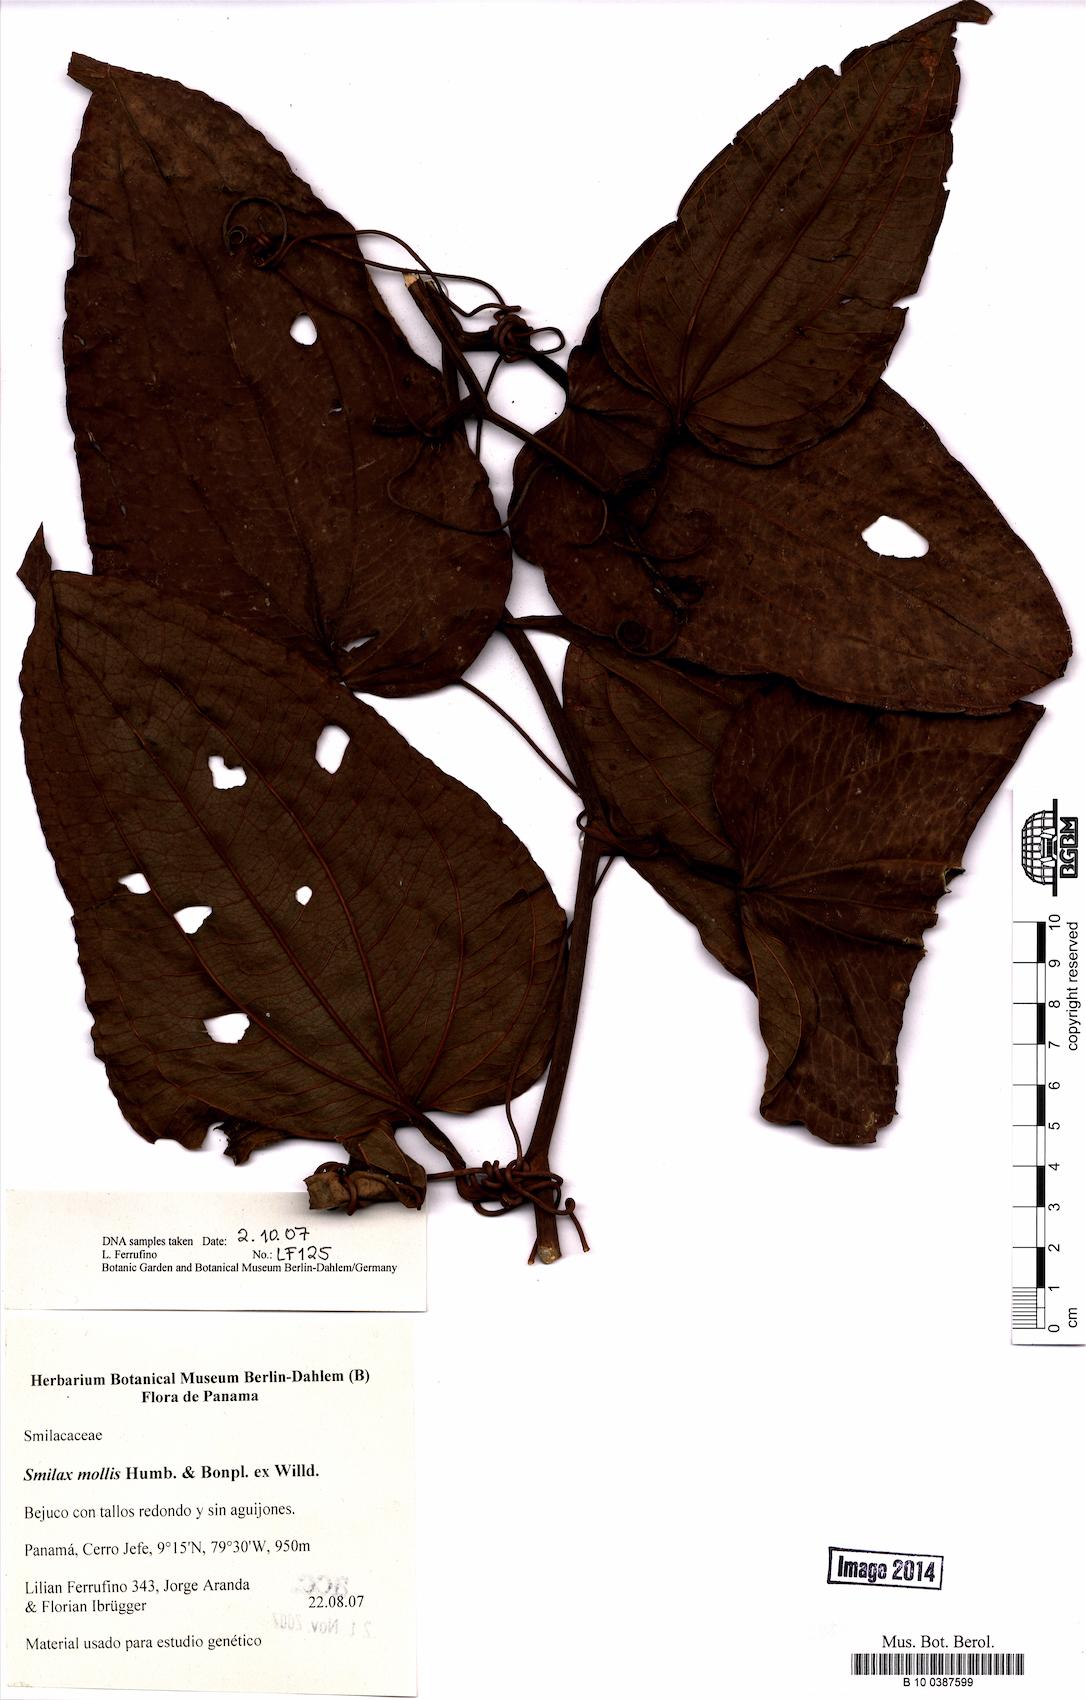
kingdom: Plantae
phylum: Tracheophyta
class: Liliopsida
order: Liliales
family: Smilacaceae
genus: Smilax
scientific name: Smilax mollis
